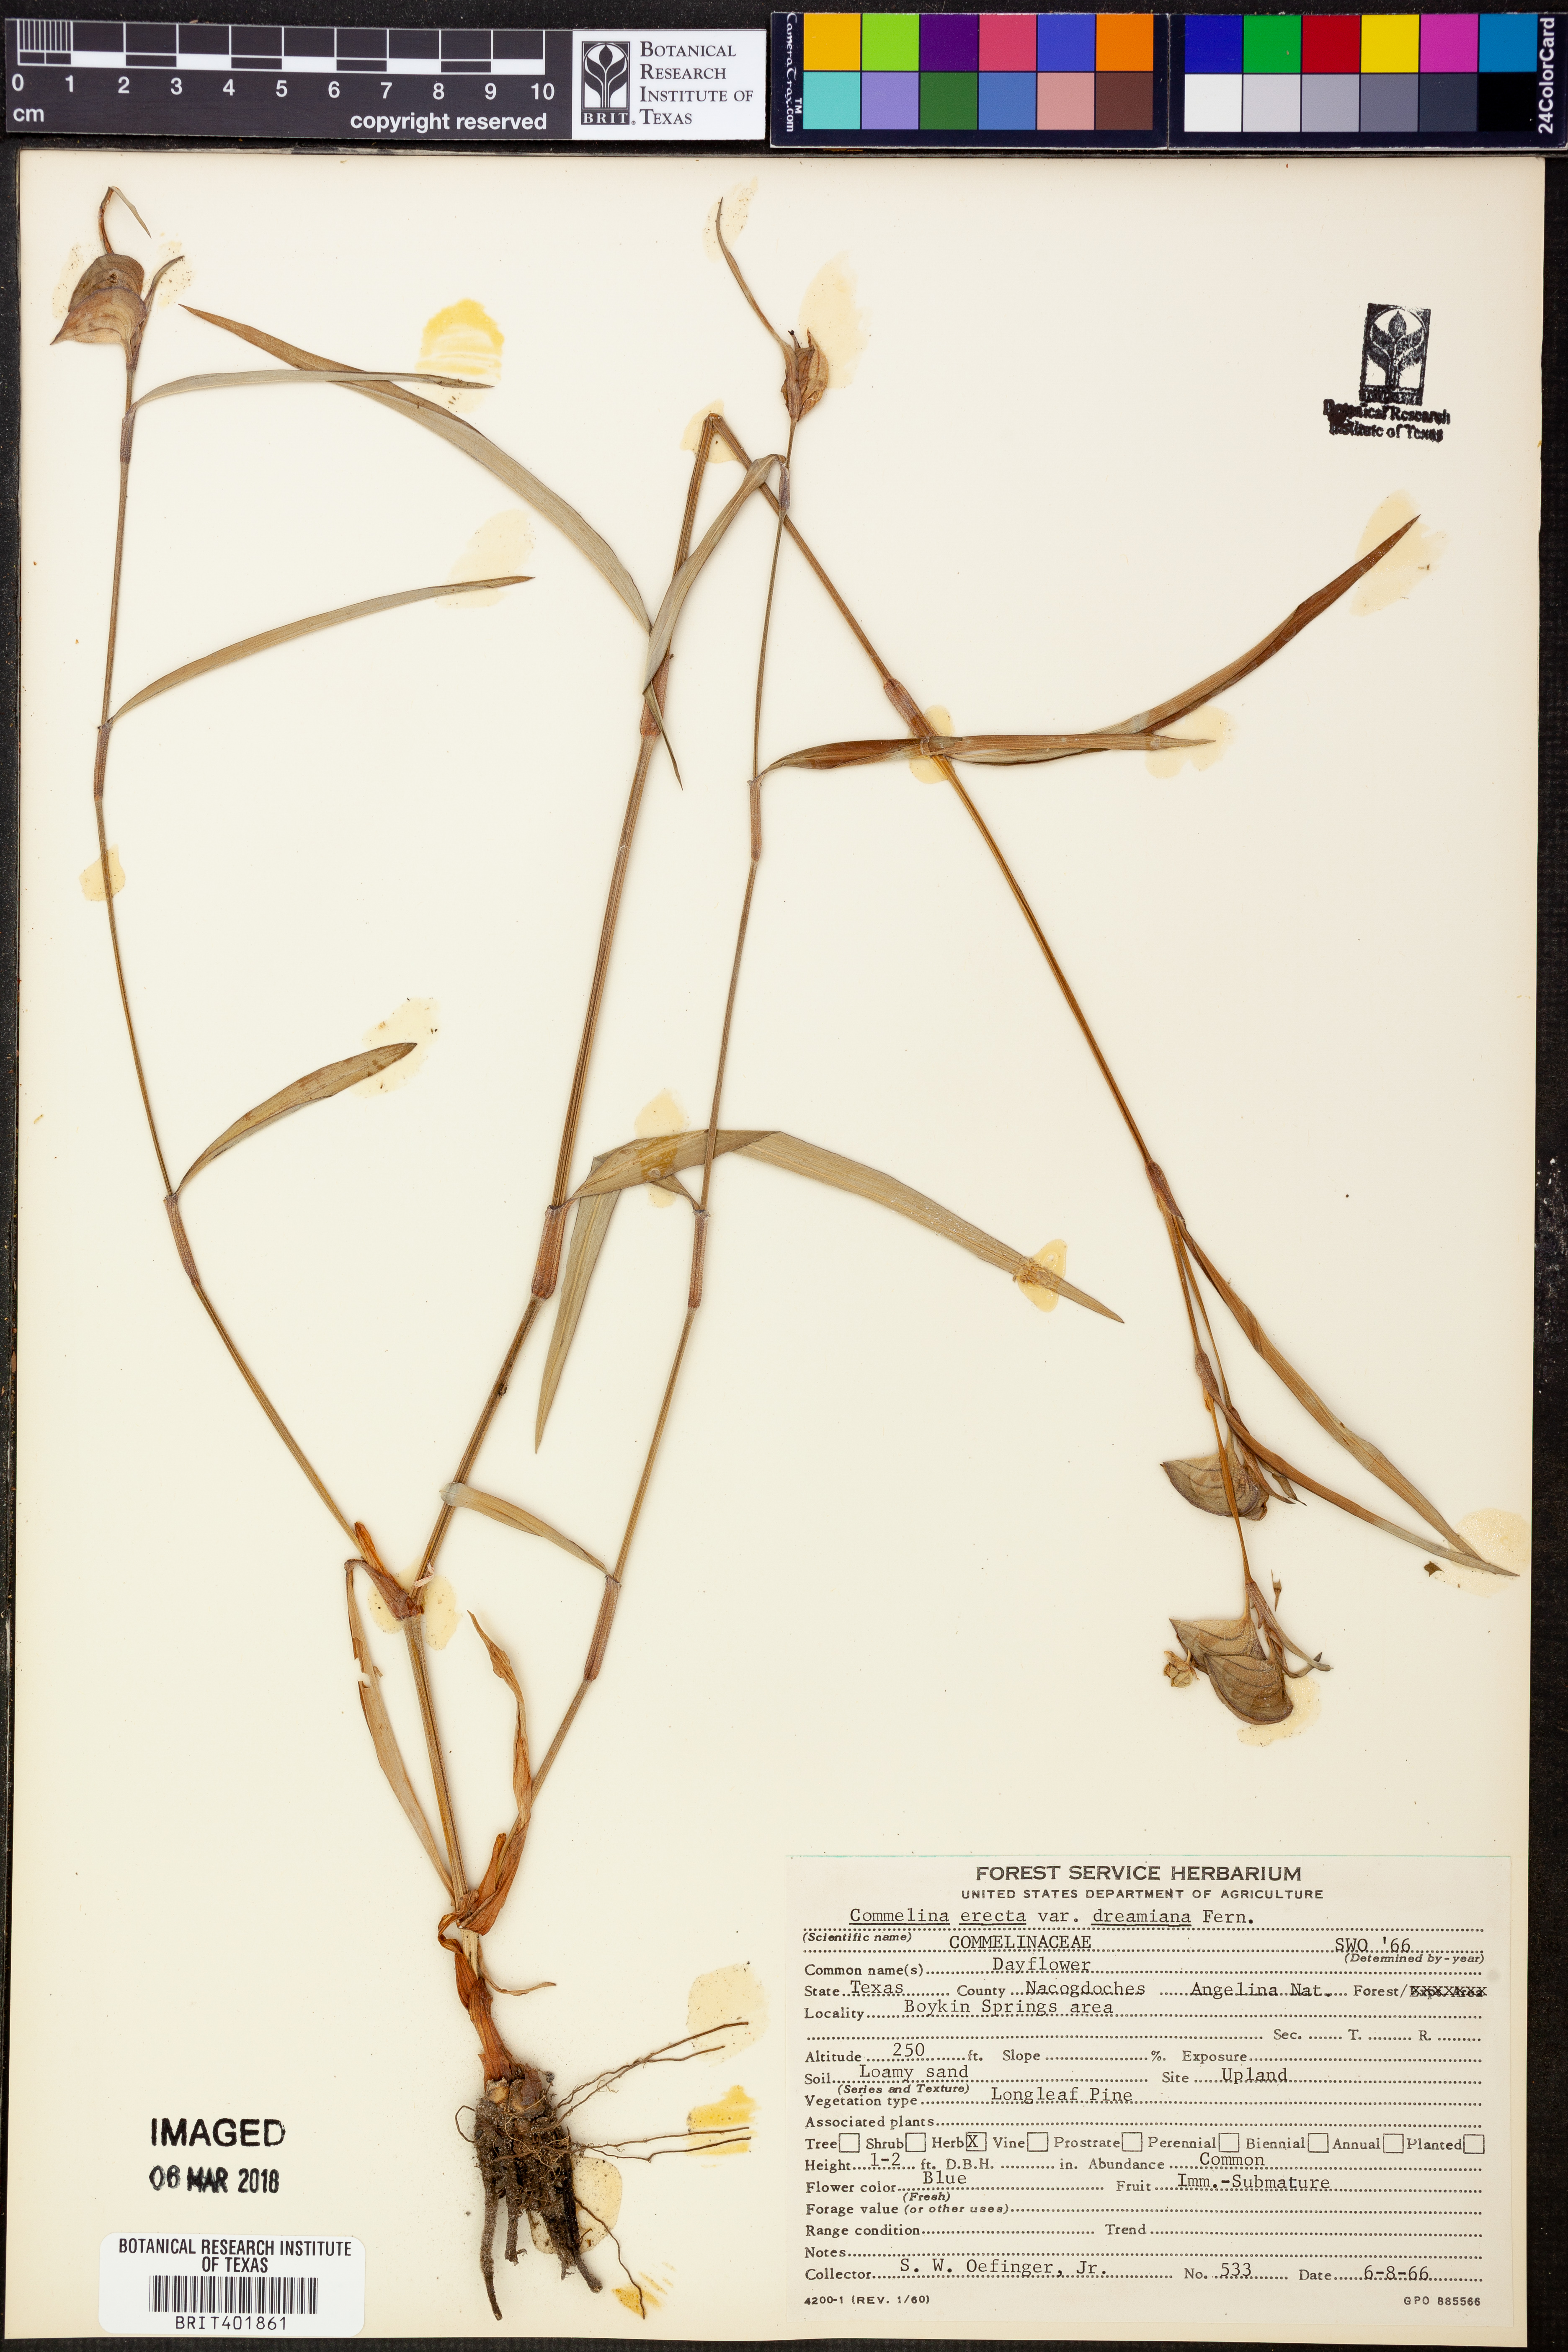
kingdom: Plantae
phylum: Tracheophyta
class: Liliopsida
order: Commelinales
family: Commelinaceae
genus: Commelina
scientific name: Commelina erecta
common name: Blousel blommetjie
